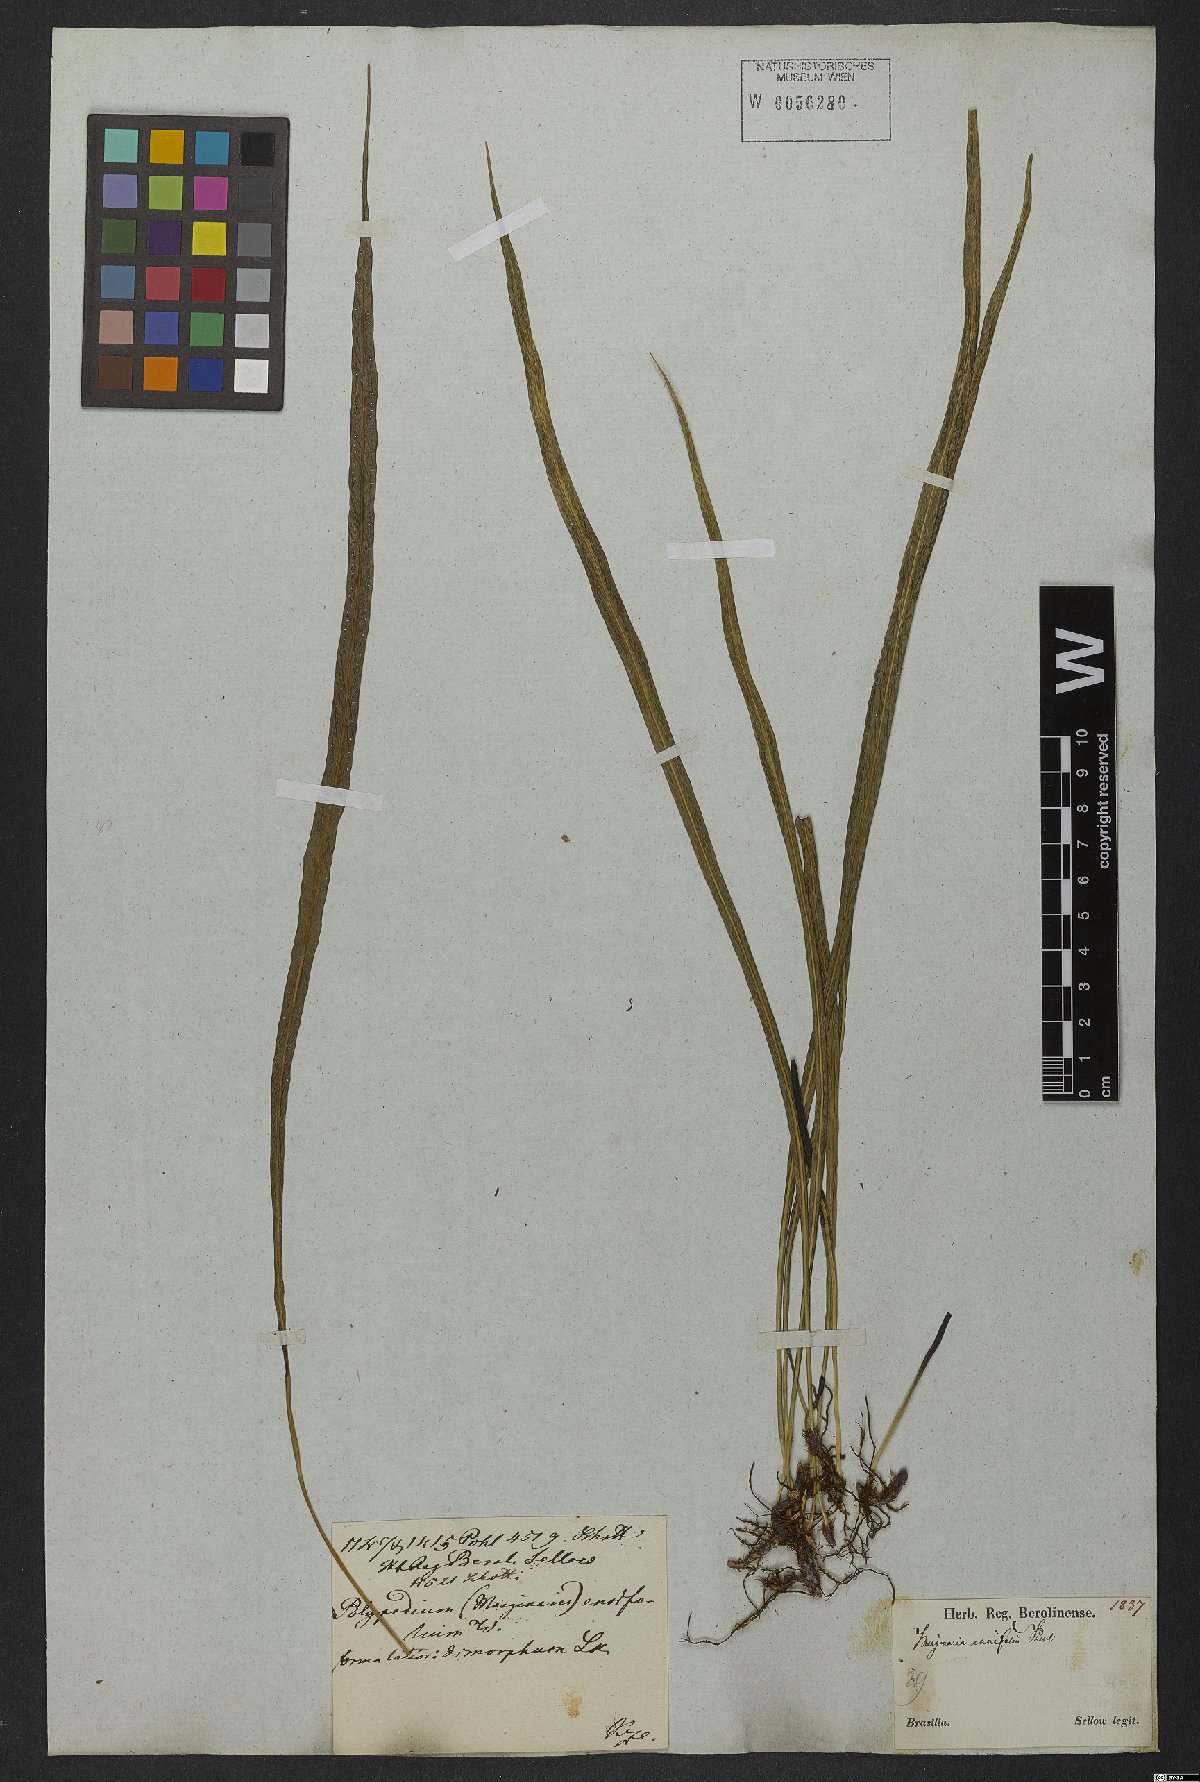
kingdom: Plantae
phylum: Tracheophyta
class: Polypodiopsida
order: Polypodiales
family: Polypodiaceae
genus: Campyloneurum
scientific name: Campyloneurum angustifolium
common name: Narrow-leaf strap fern
